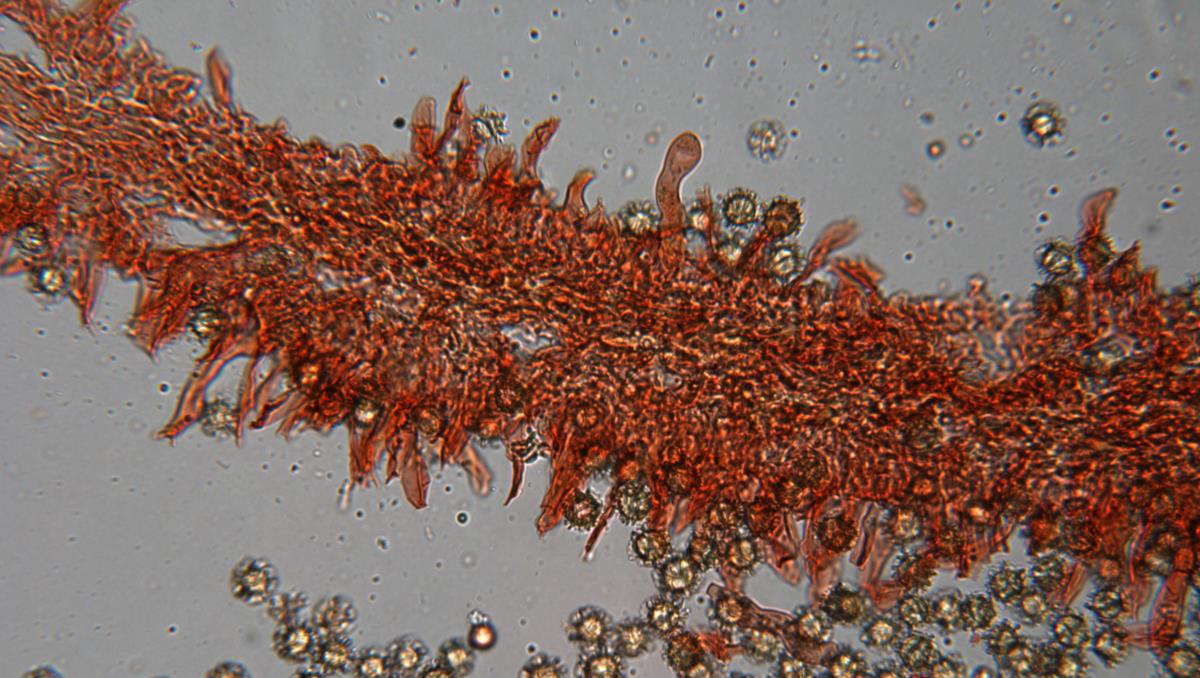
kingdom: Fungi
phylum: Basidiomycota
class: Agaricomycetes
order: Russulales
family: Russulaceae
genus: Zelleromyces
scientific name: Zelleromyces
